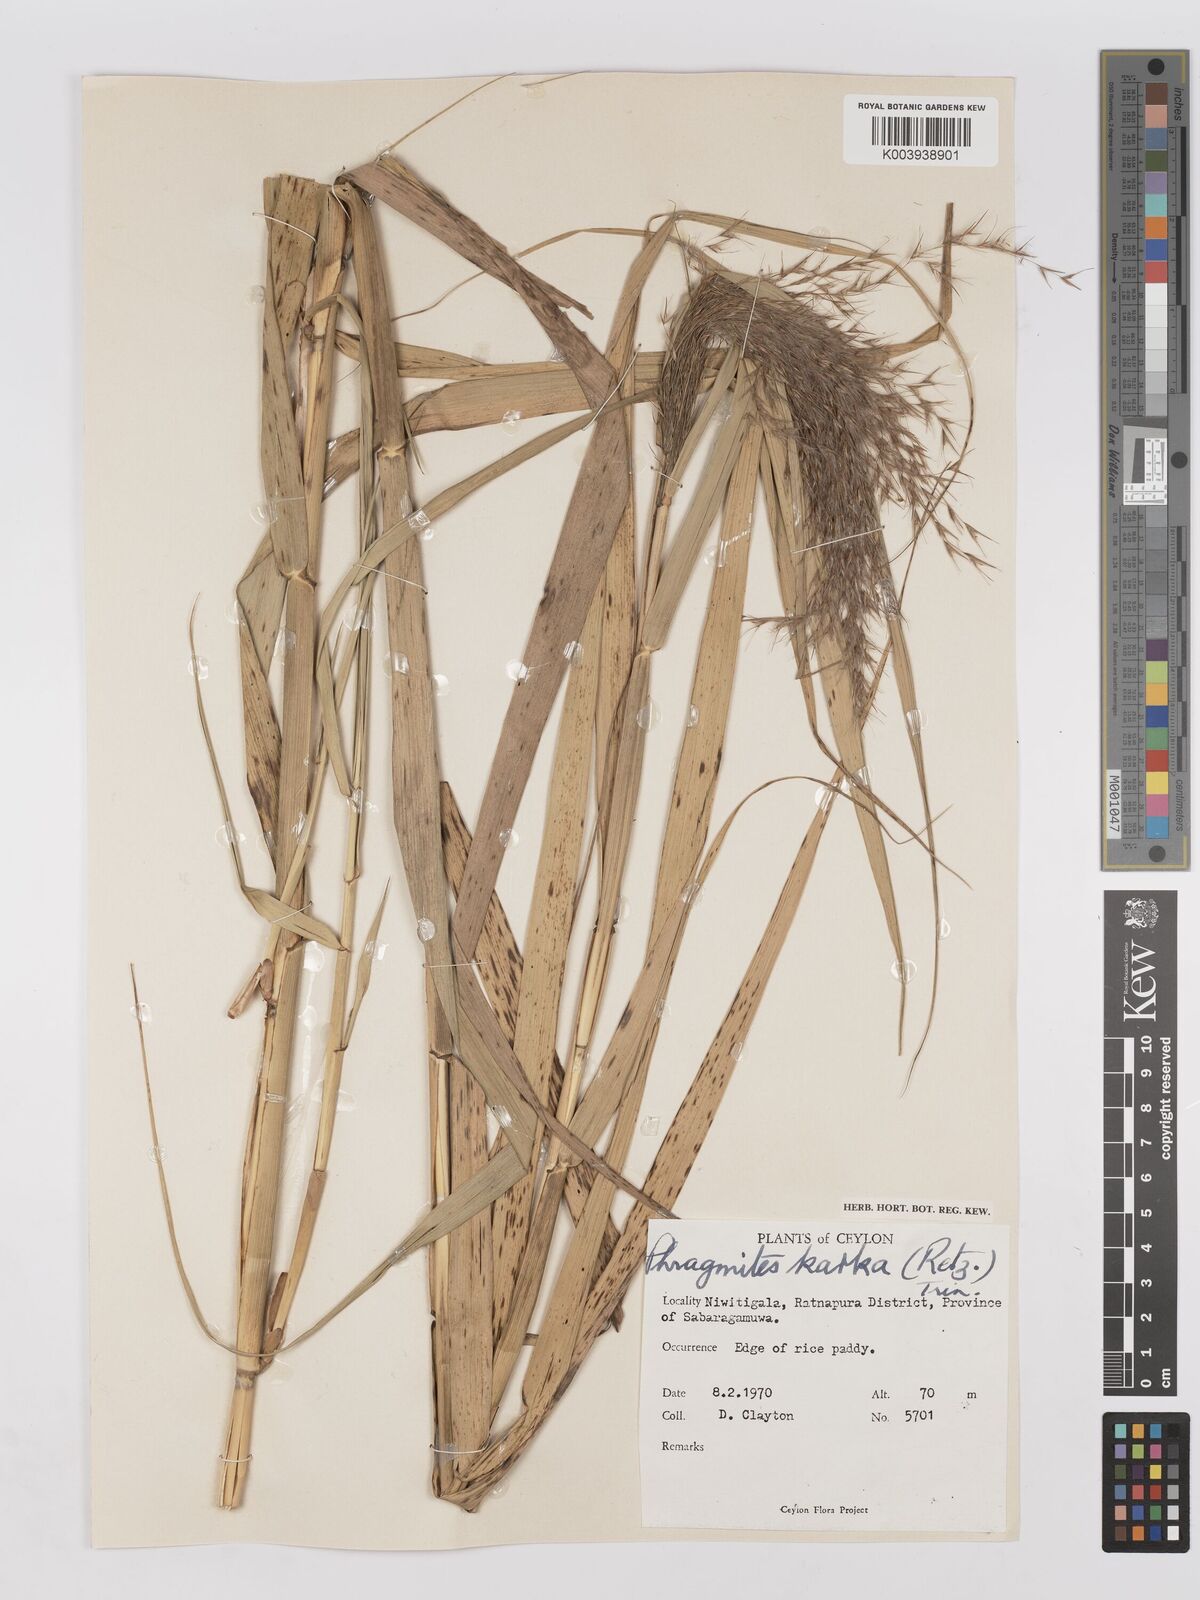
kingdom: Plantae
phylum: Tracheophyta
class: Liliopsida
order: Poales
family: Poaceae
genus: Phragmites
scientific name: Phragmites karka
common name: Tropical reed
